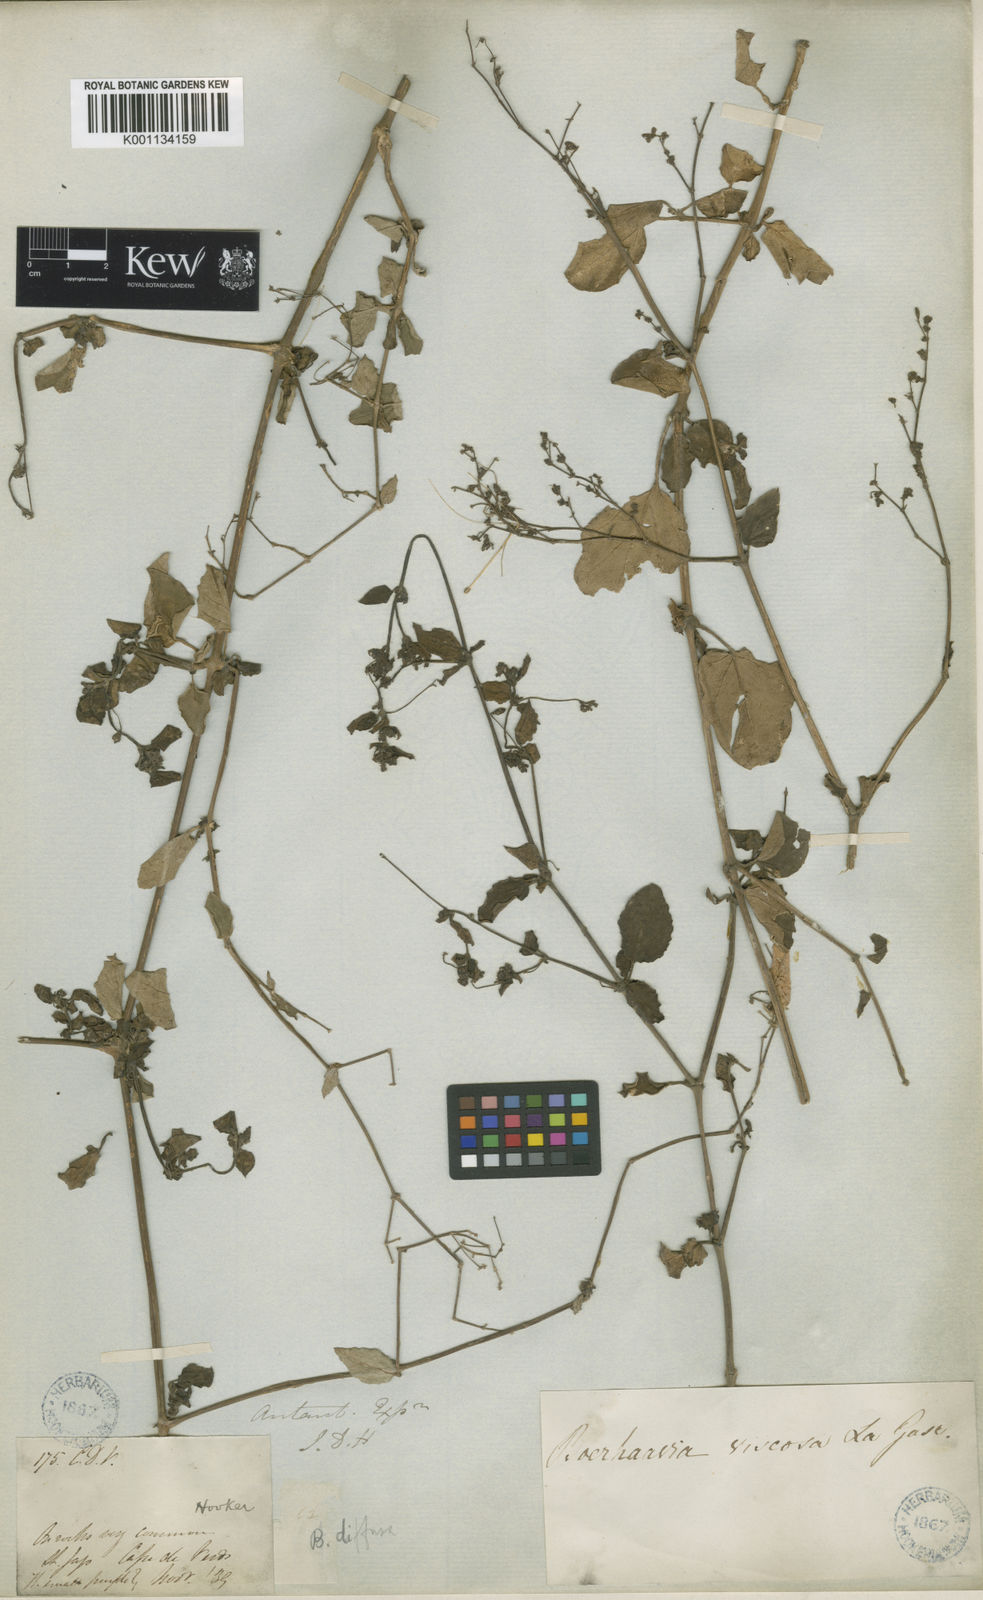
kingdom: Plantae
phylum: Tracheophyta
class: Magnoliopsida
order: Caryophyllales
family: Nyctaginaceae
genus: Boerhavia
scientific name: Boerhavia repens
